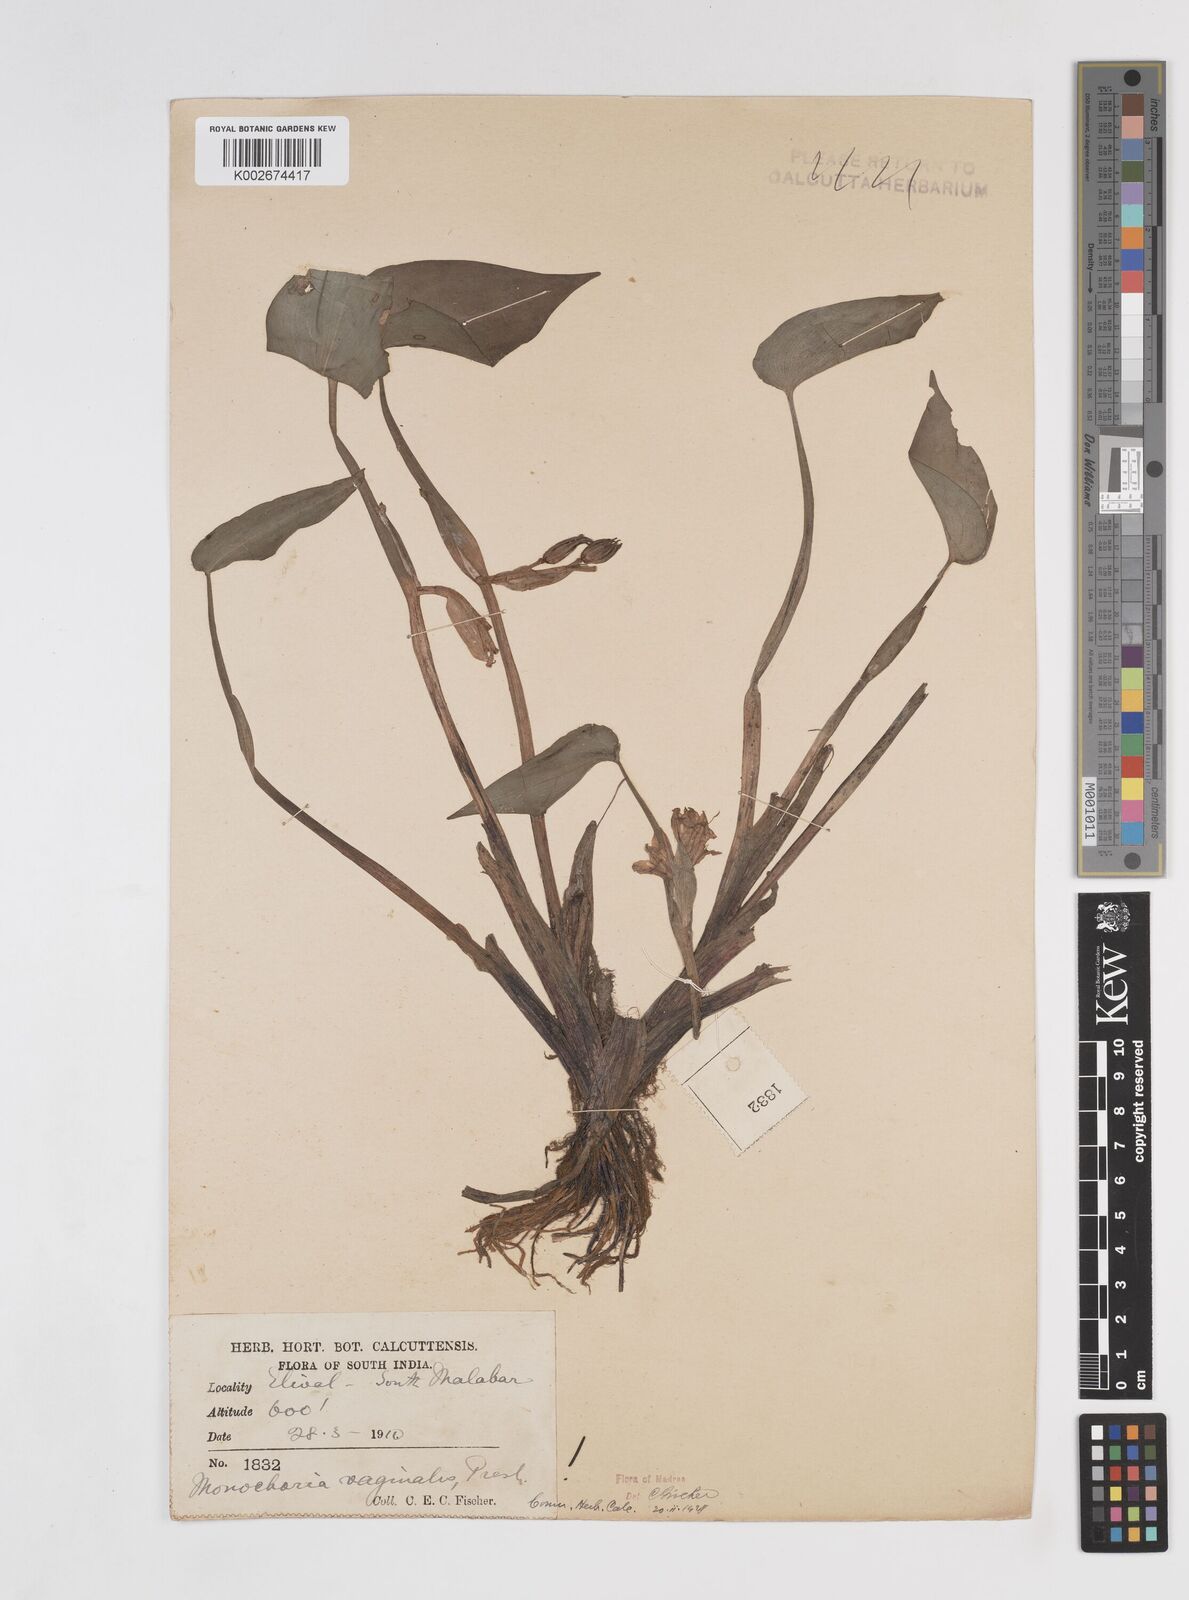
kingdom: Plantae
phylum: Tracheophyta
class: Liliopsida
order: Commelinales
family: Pontederiaceae
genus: Pontederia
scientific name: Pontederia vaginalis
